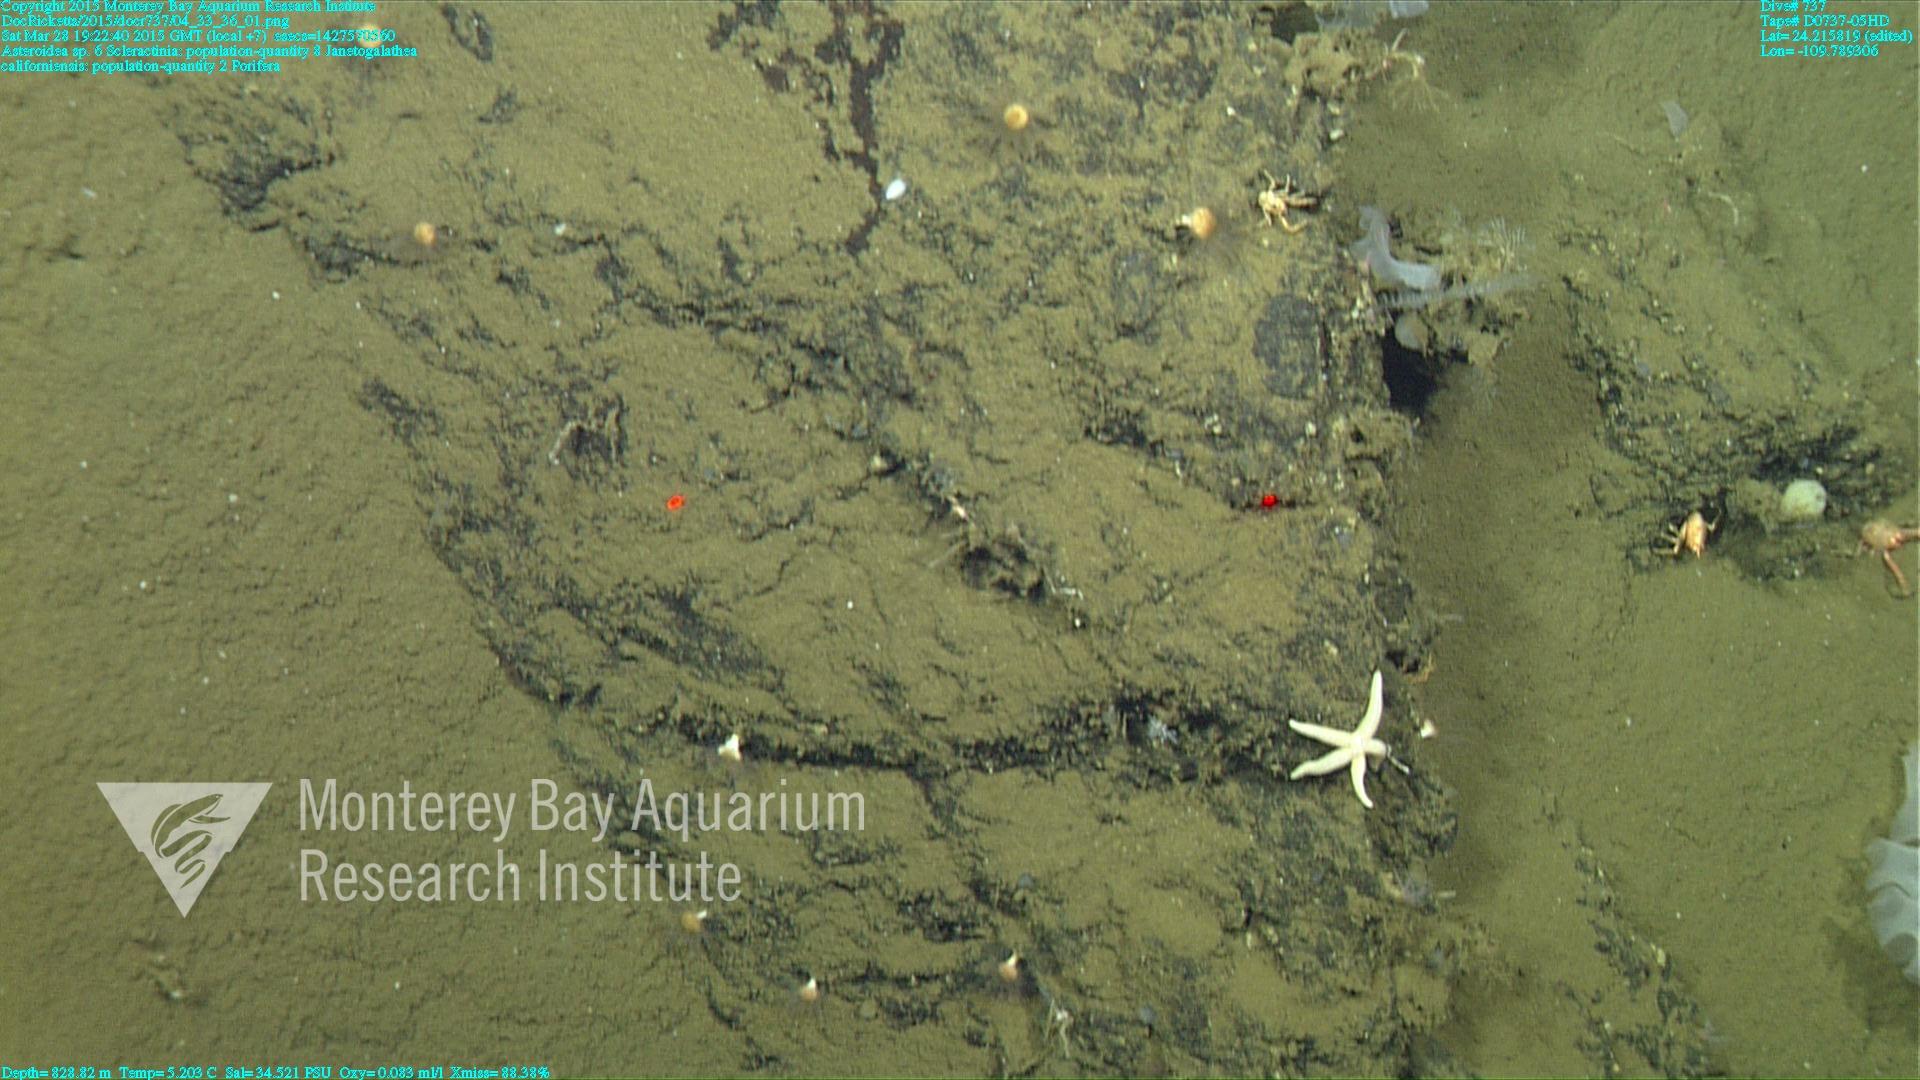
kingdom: Animalia
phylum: Cnidaria
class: Anthozoa
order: Scleractinia
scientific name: Scleractinia
